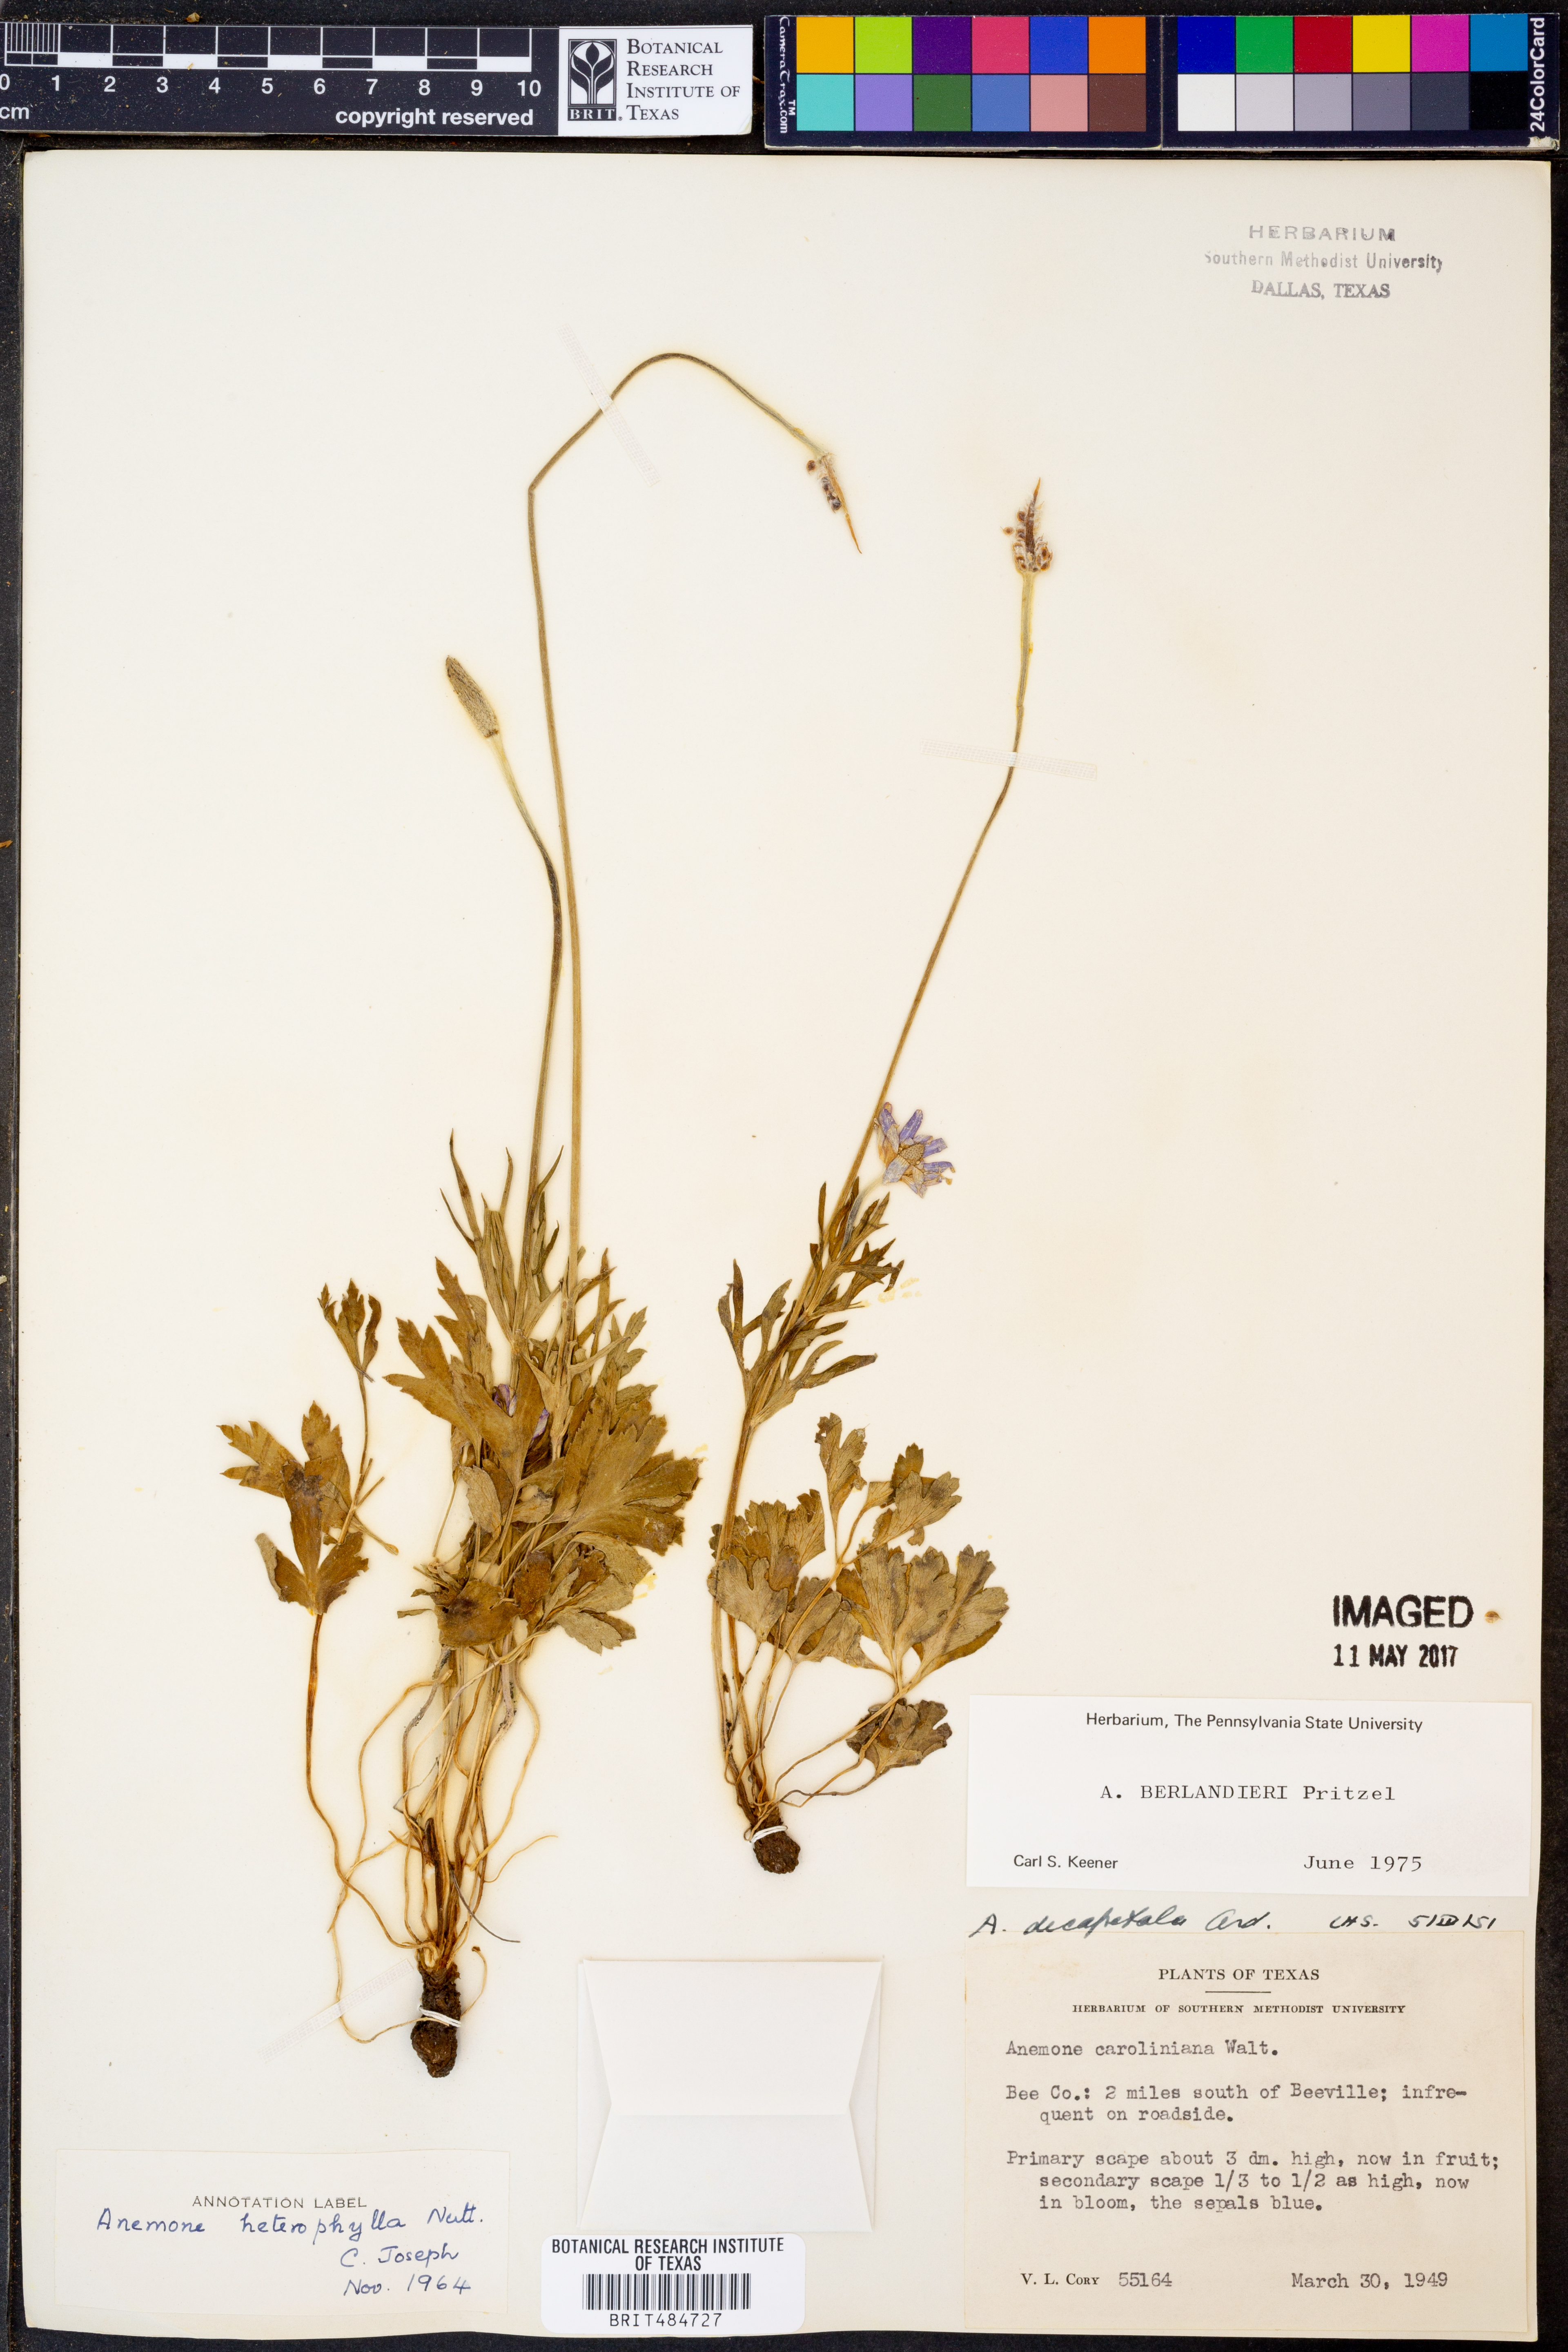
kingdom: Plantae
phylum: Tracheophyta
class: Magnoliopsida
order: Ranunculales
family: Ranunculaceae
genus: Anemone
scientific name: Anemone berlandieri
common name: Ten-petal anemone
